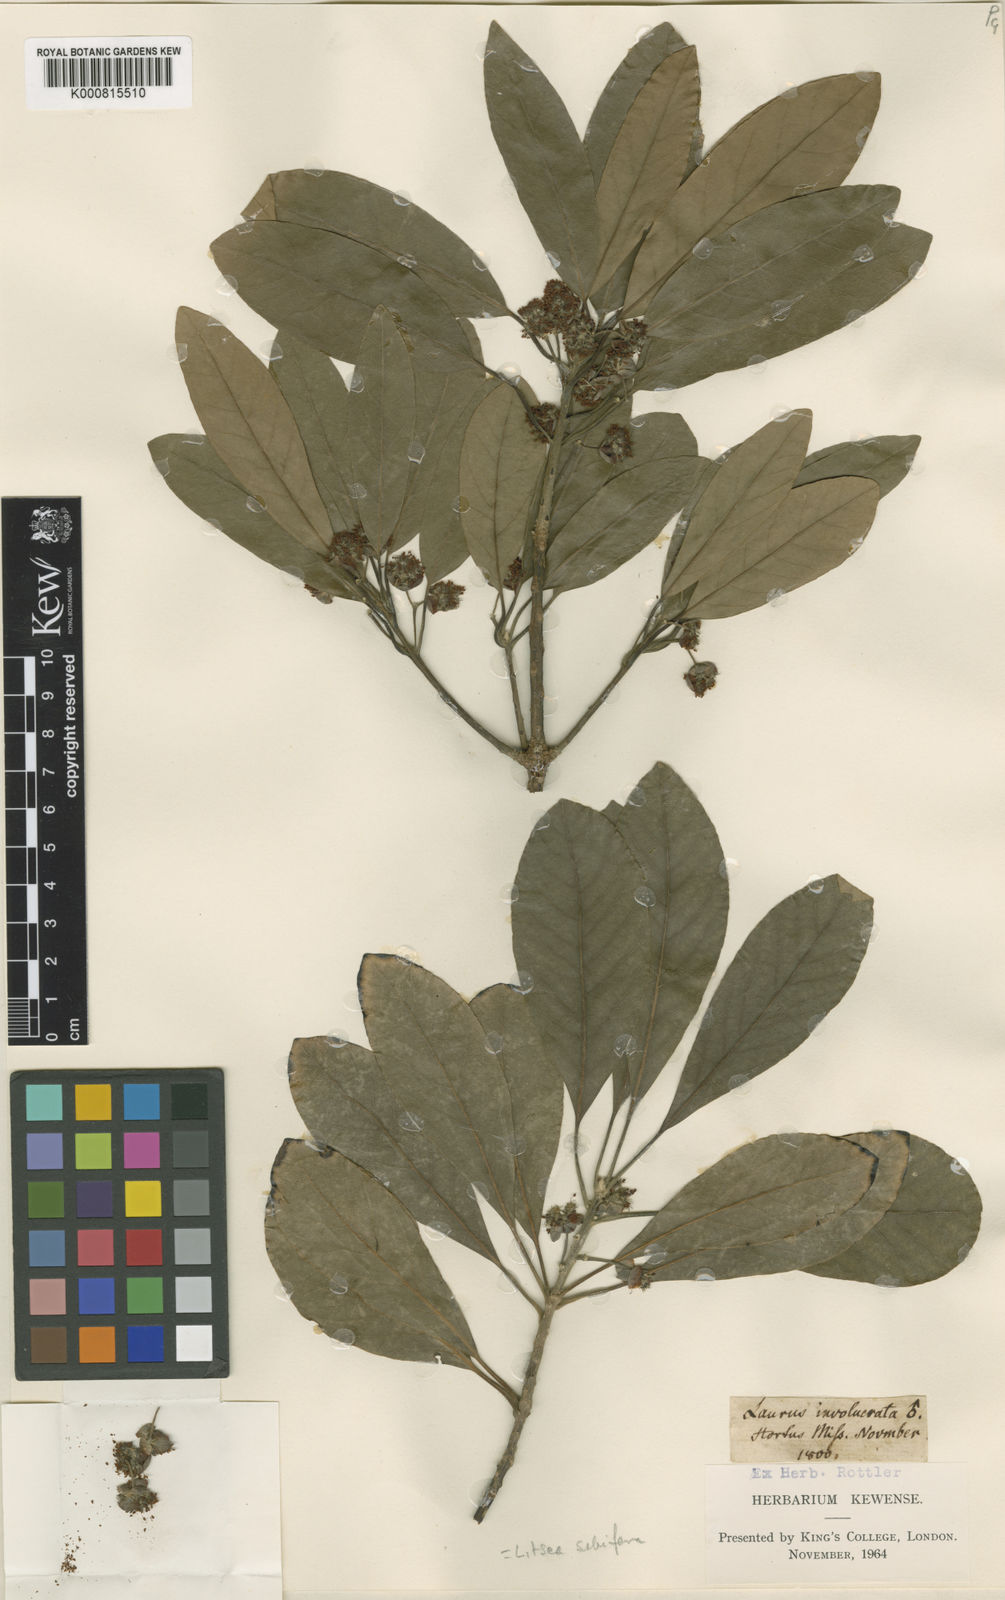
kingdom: Plantae
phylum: Tracheophyta
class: Magnoliopsida
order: Laurales
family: Lauraceae
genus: Neolitsea
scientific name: Neolitsea cassia
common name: Laurel
